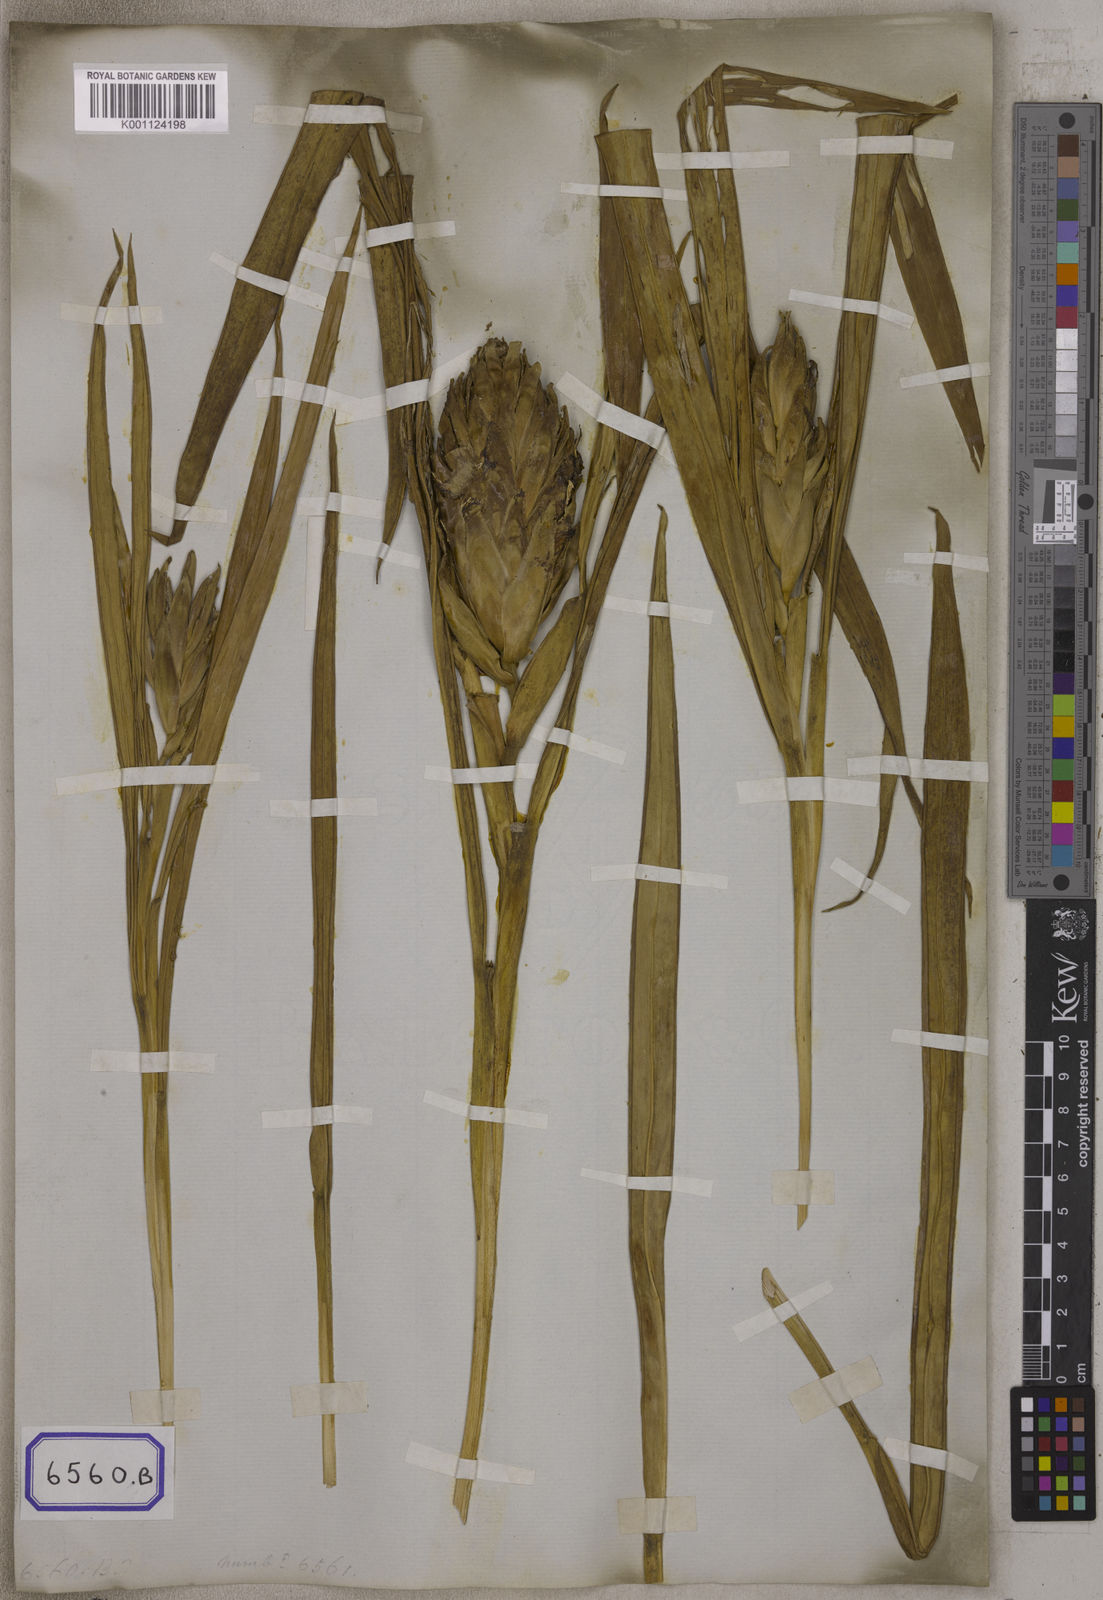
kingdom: Plantae
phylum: Tracheophyta
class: Liliopsida
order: Zingiberales
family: Zingiberaceae
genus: Zingiber
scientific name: Zingiber capitatum
